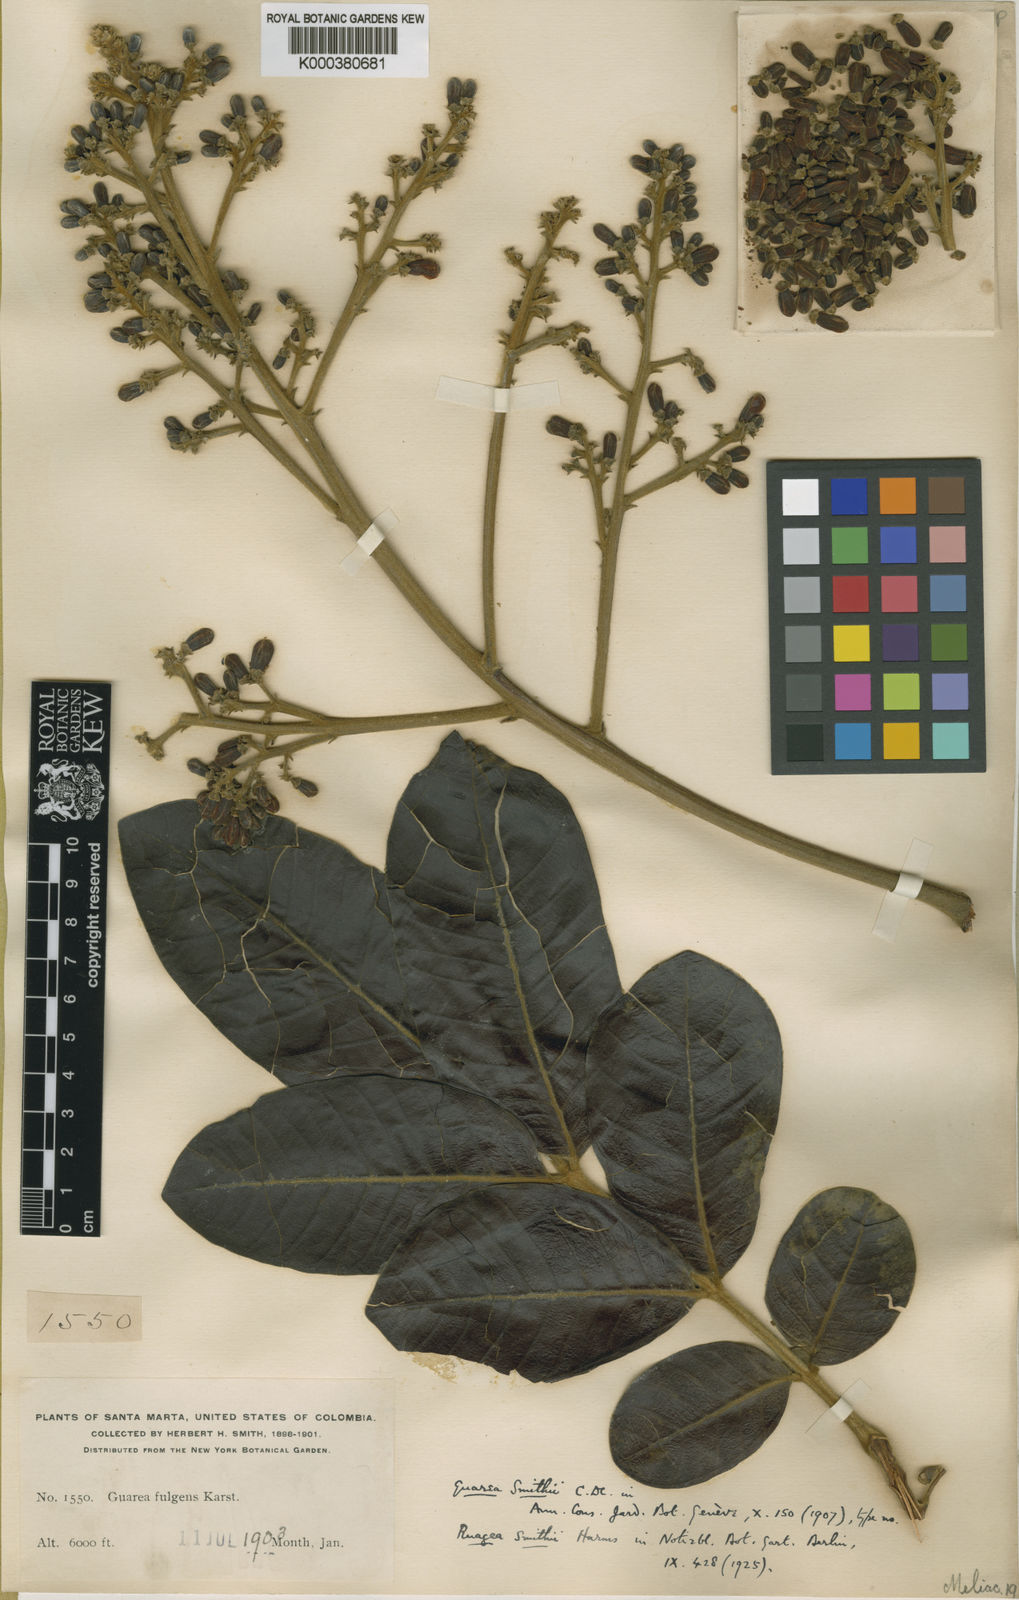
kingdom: Plantae
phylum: Tracheophyta
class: Magnoliopsida
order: Sapindales
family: Meliaceae
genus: Ruagea
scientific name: Ruagea pubescens
